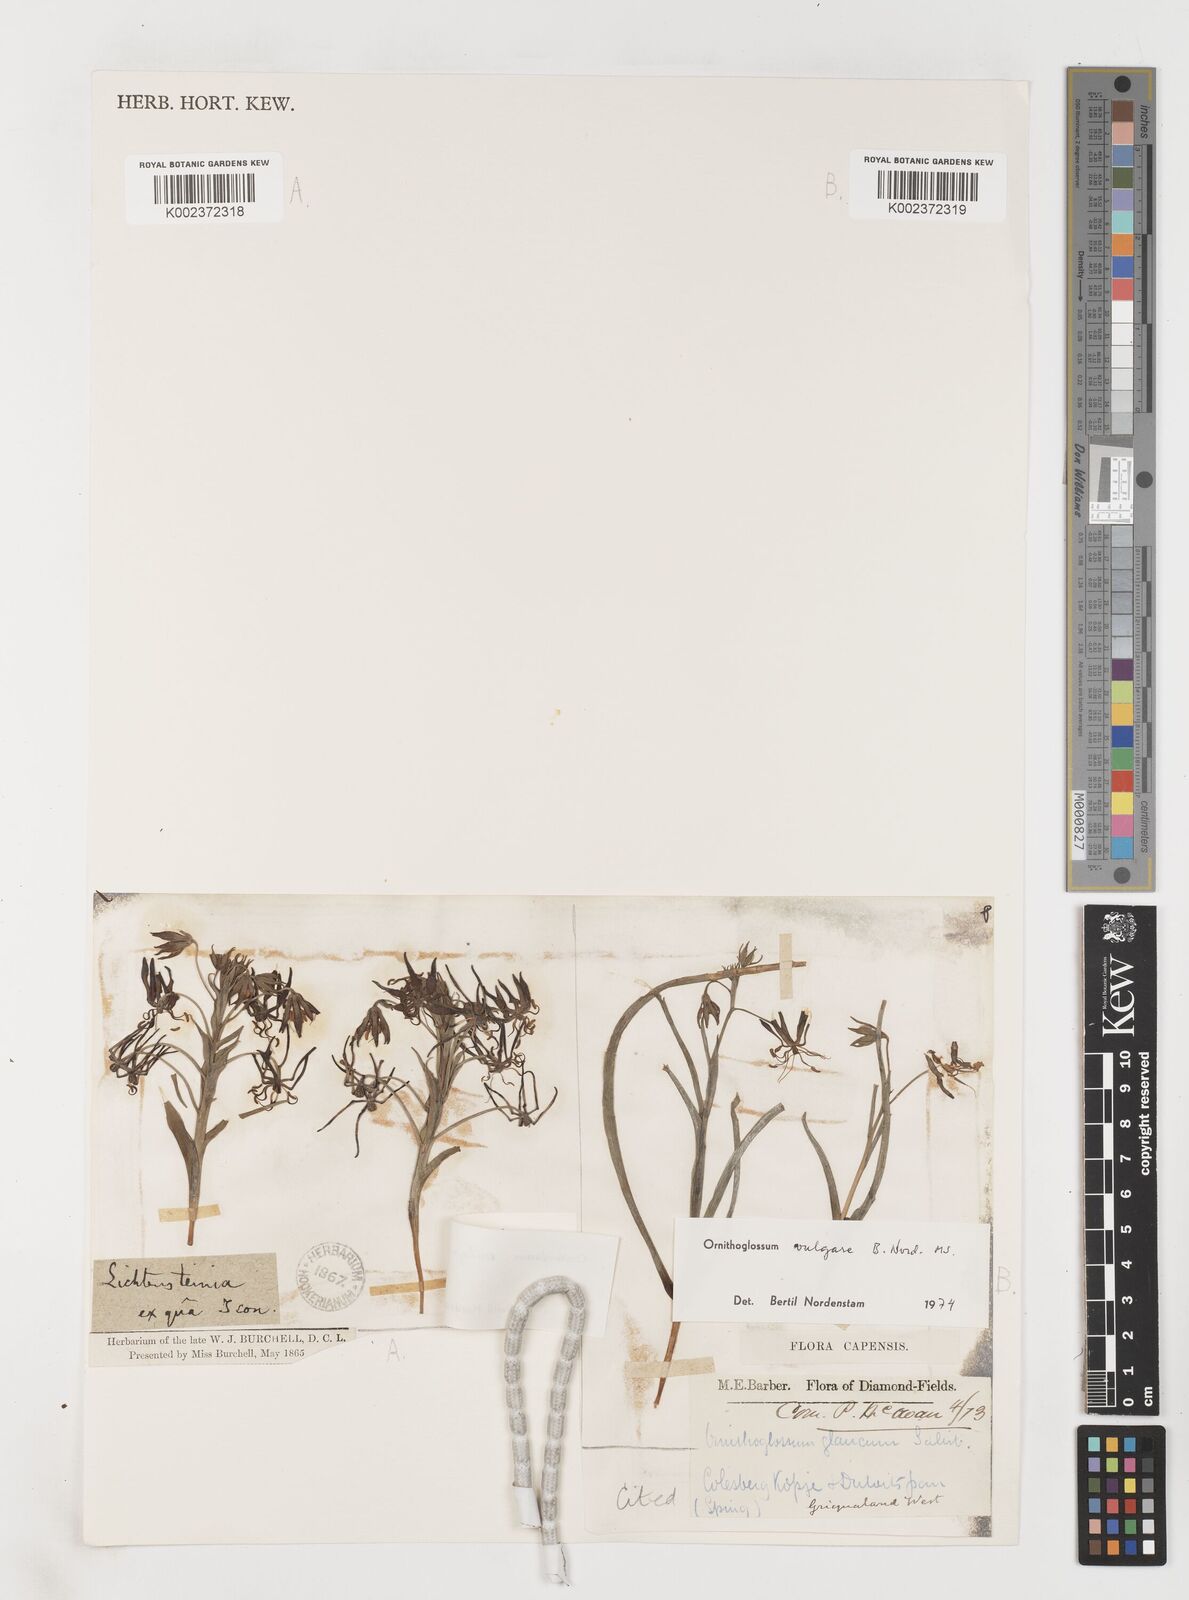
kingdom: Plantae
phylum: Tracheophyta
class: Liliopsida
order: Liliales
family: Colchicaceae
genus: Ornithoglossum
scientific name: Ornithoglossum vulgare
